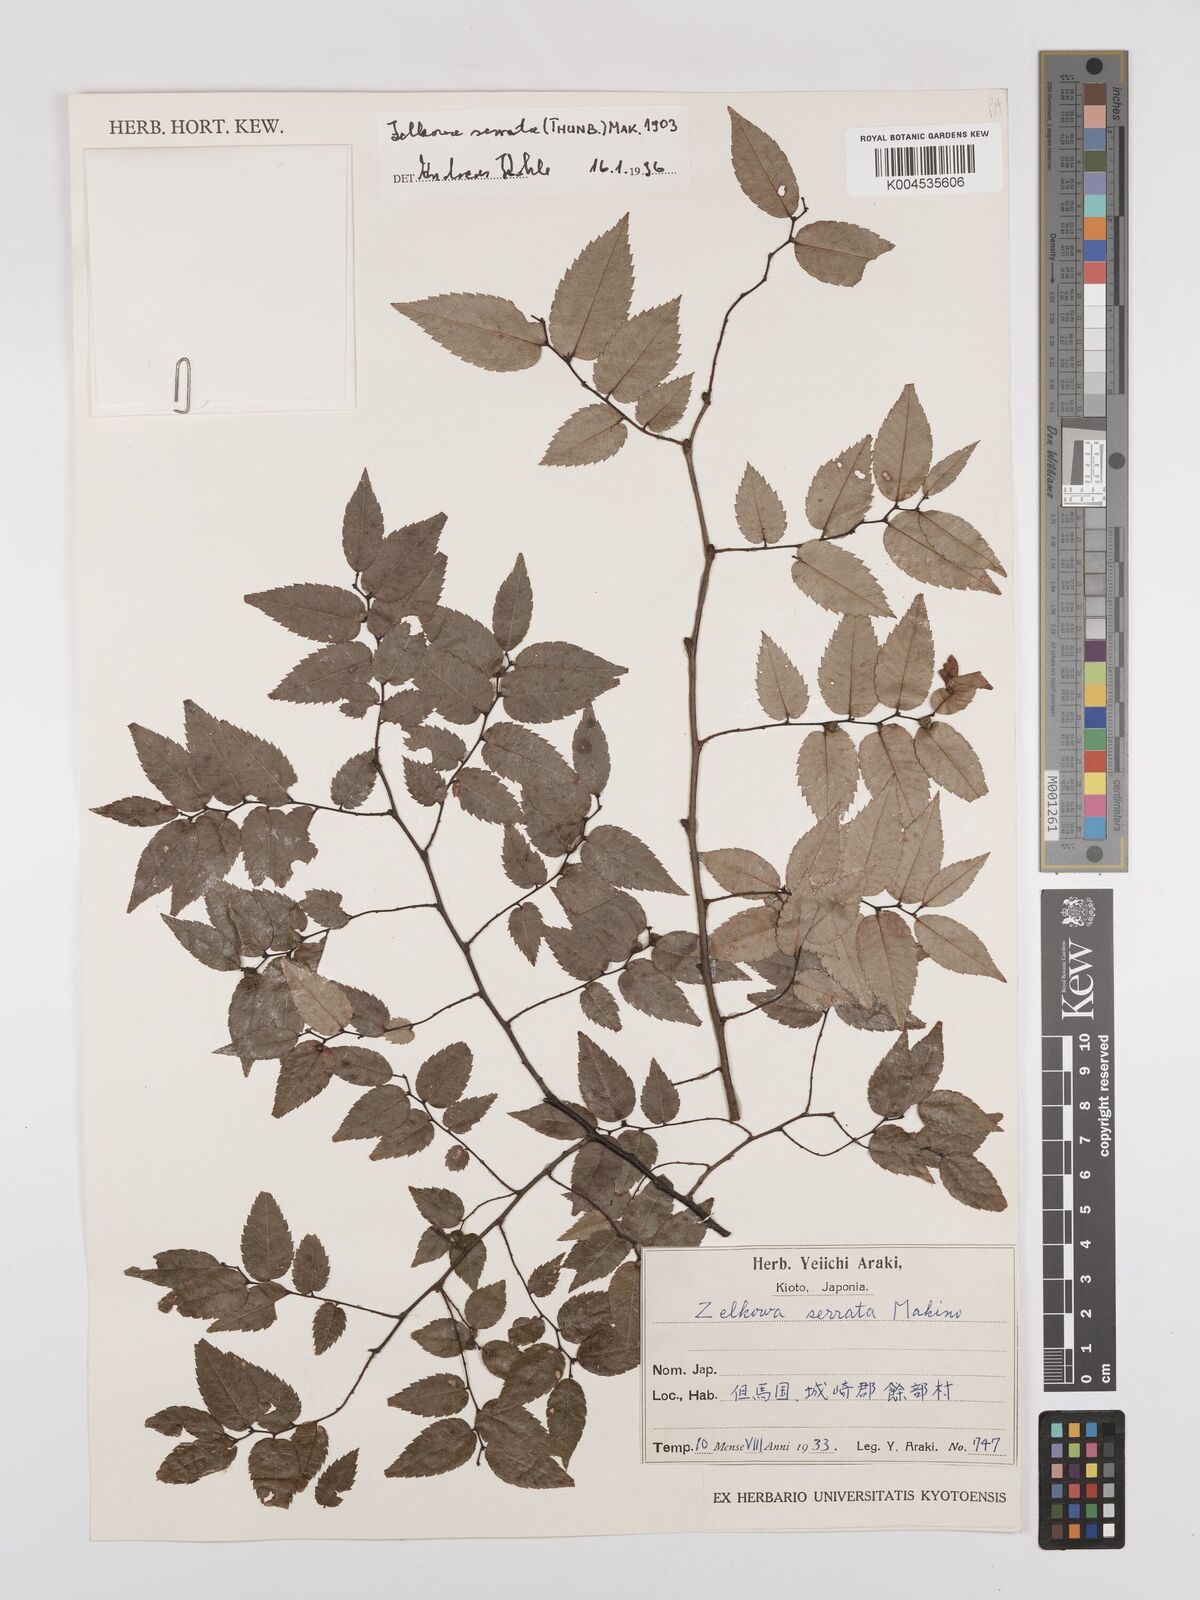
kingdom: Plantae
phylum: Tracheophyta
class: Magnoliopsida
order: Rosales
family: Ulmaceae
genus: Zelkova
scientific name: Zelkova serrata
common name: Japanese zelkova
